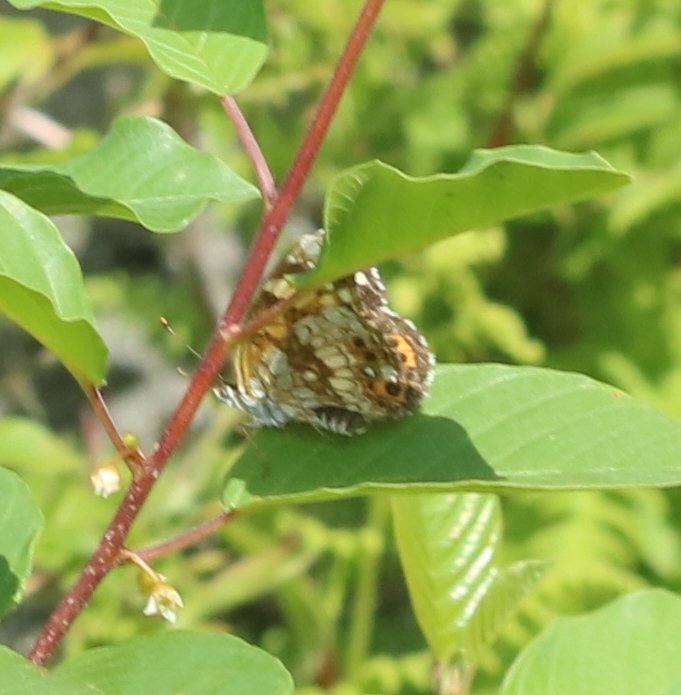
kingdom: Animalia
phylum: Arthropoda
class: Insecta
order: Lepidoptera
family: Nymphalidae
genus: Chlosyne
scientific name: Chlosyne nycteis
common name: Silvery Checkerspot
